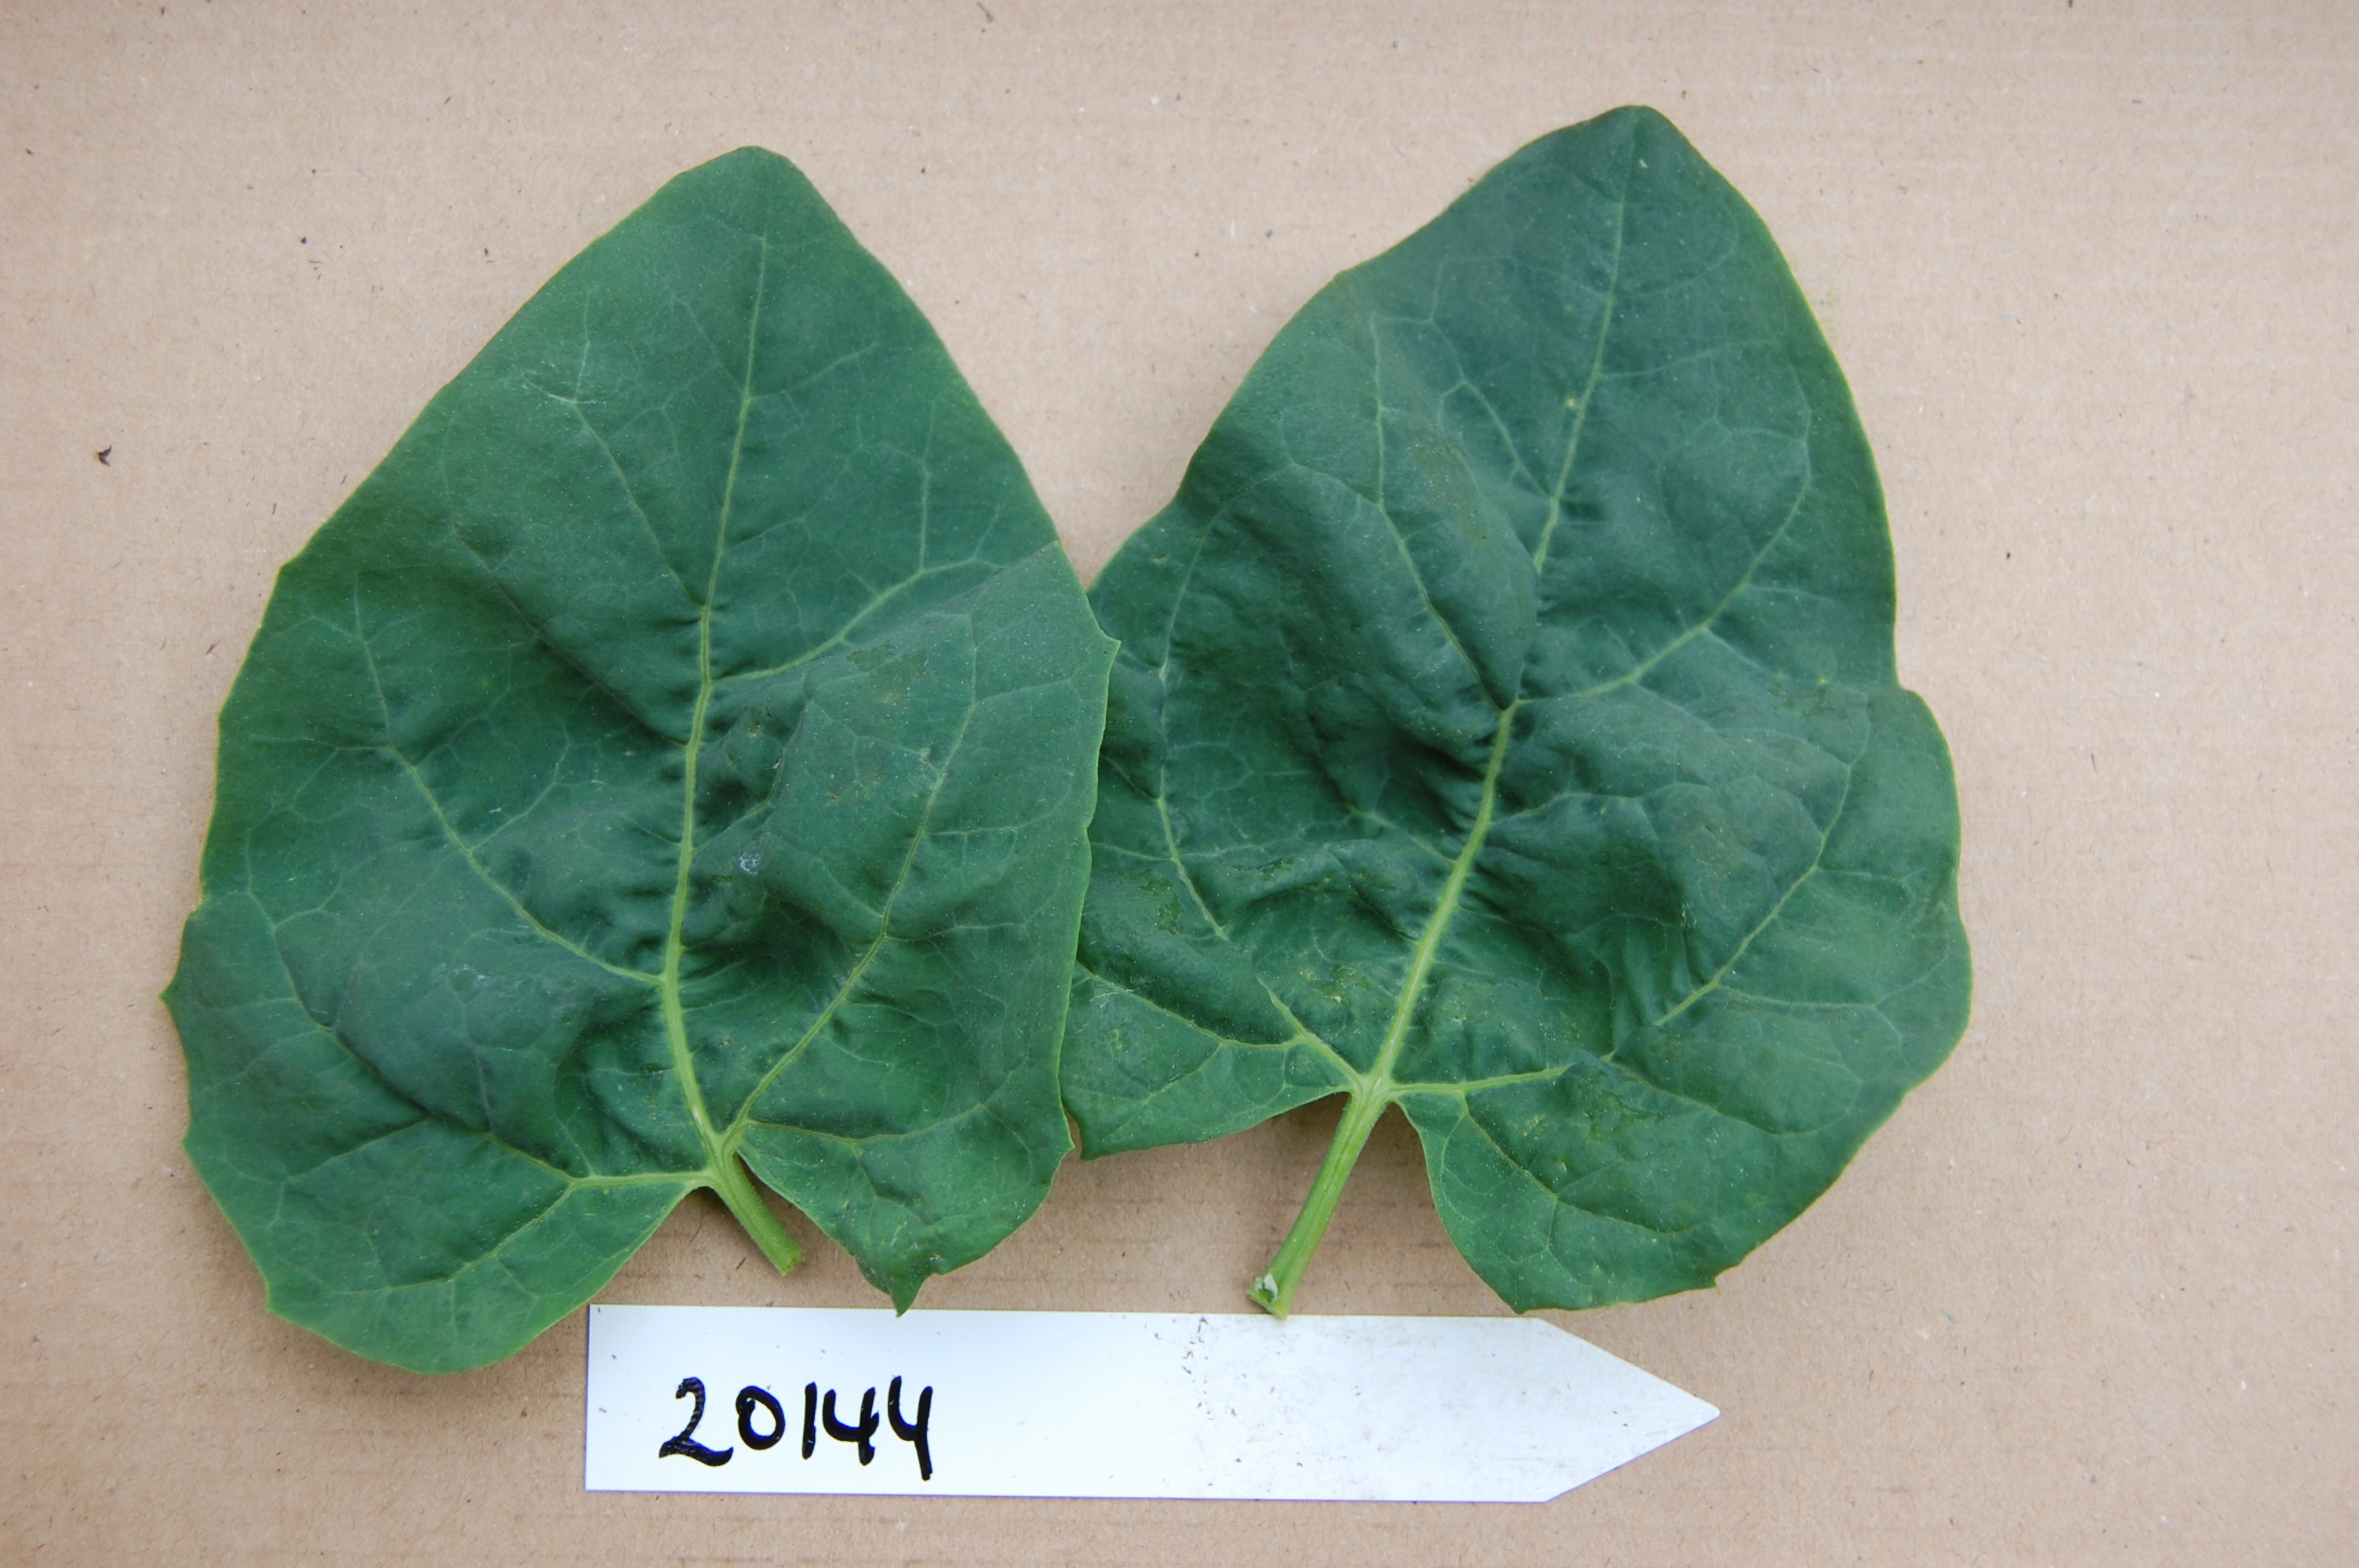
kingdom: Plantae
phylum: Tracheophyta
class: Magnoliopsida
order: Caryophyllales
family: Amaranthaceae
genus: Atriplex
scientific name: Atriplex hortensis
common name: Garden orache
